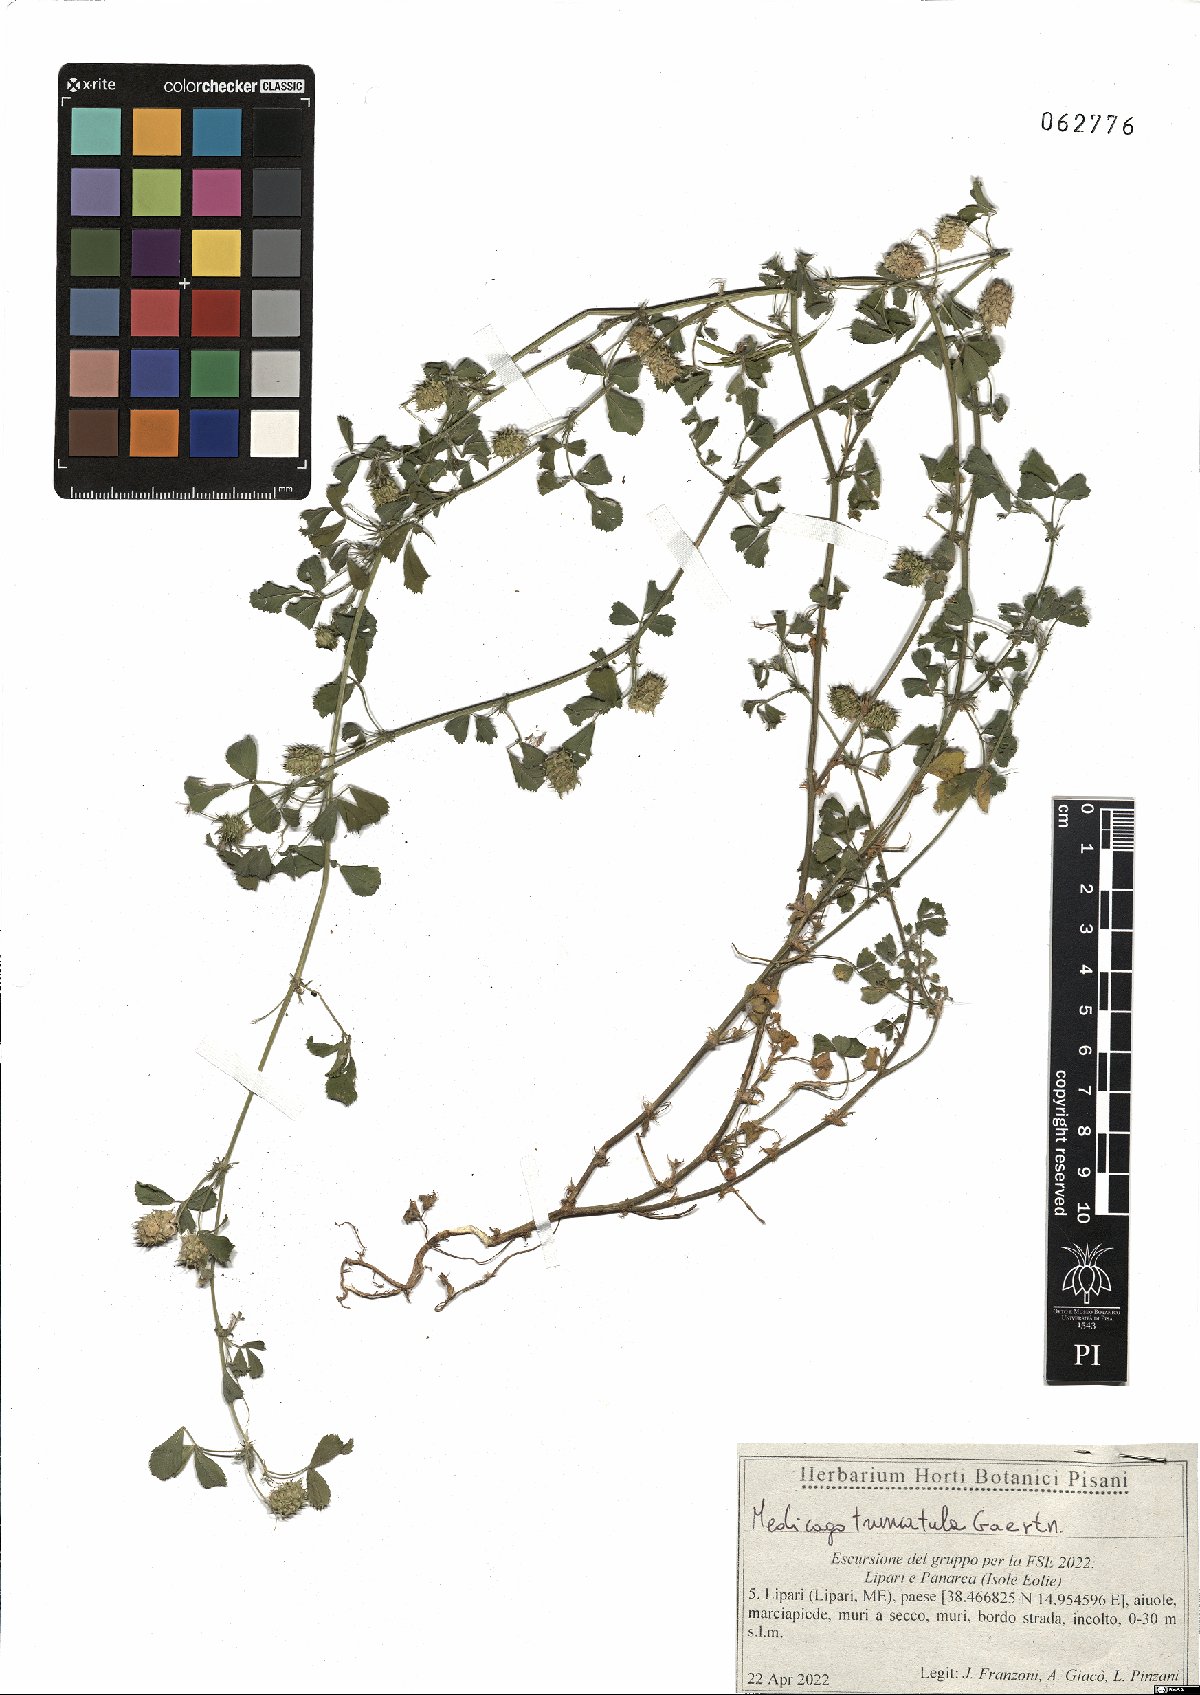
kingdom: Plantae
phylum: Tracheophyta
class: Magnoliopsida
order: Fabales
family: Fabaceae
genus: Medicago
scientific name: Medicago truncatula
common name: Strong-spined medick
